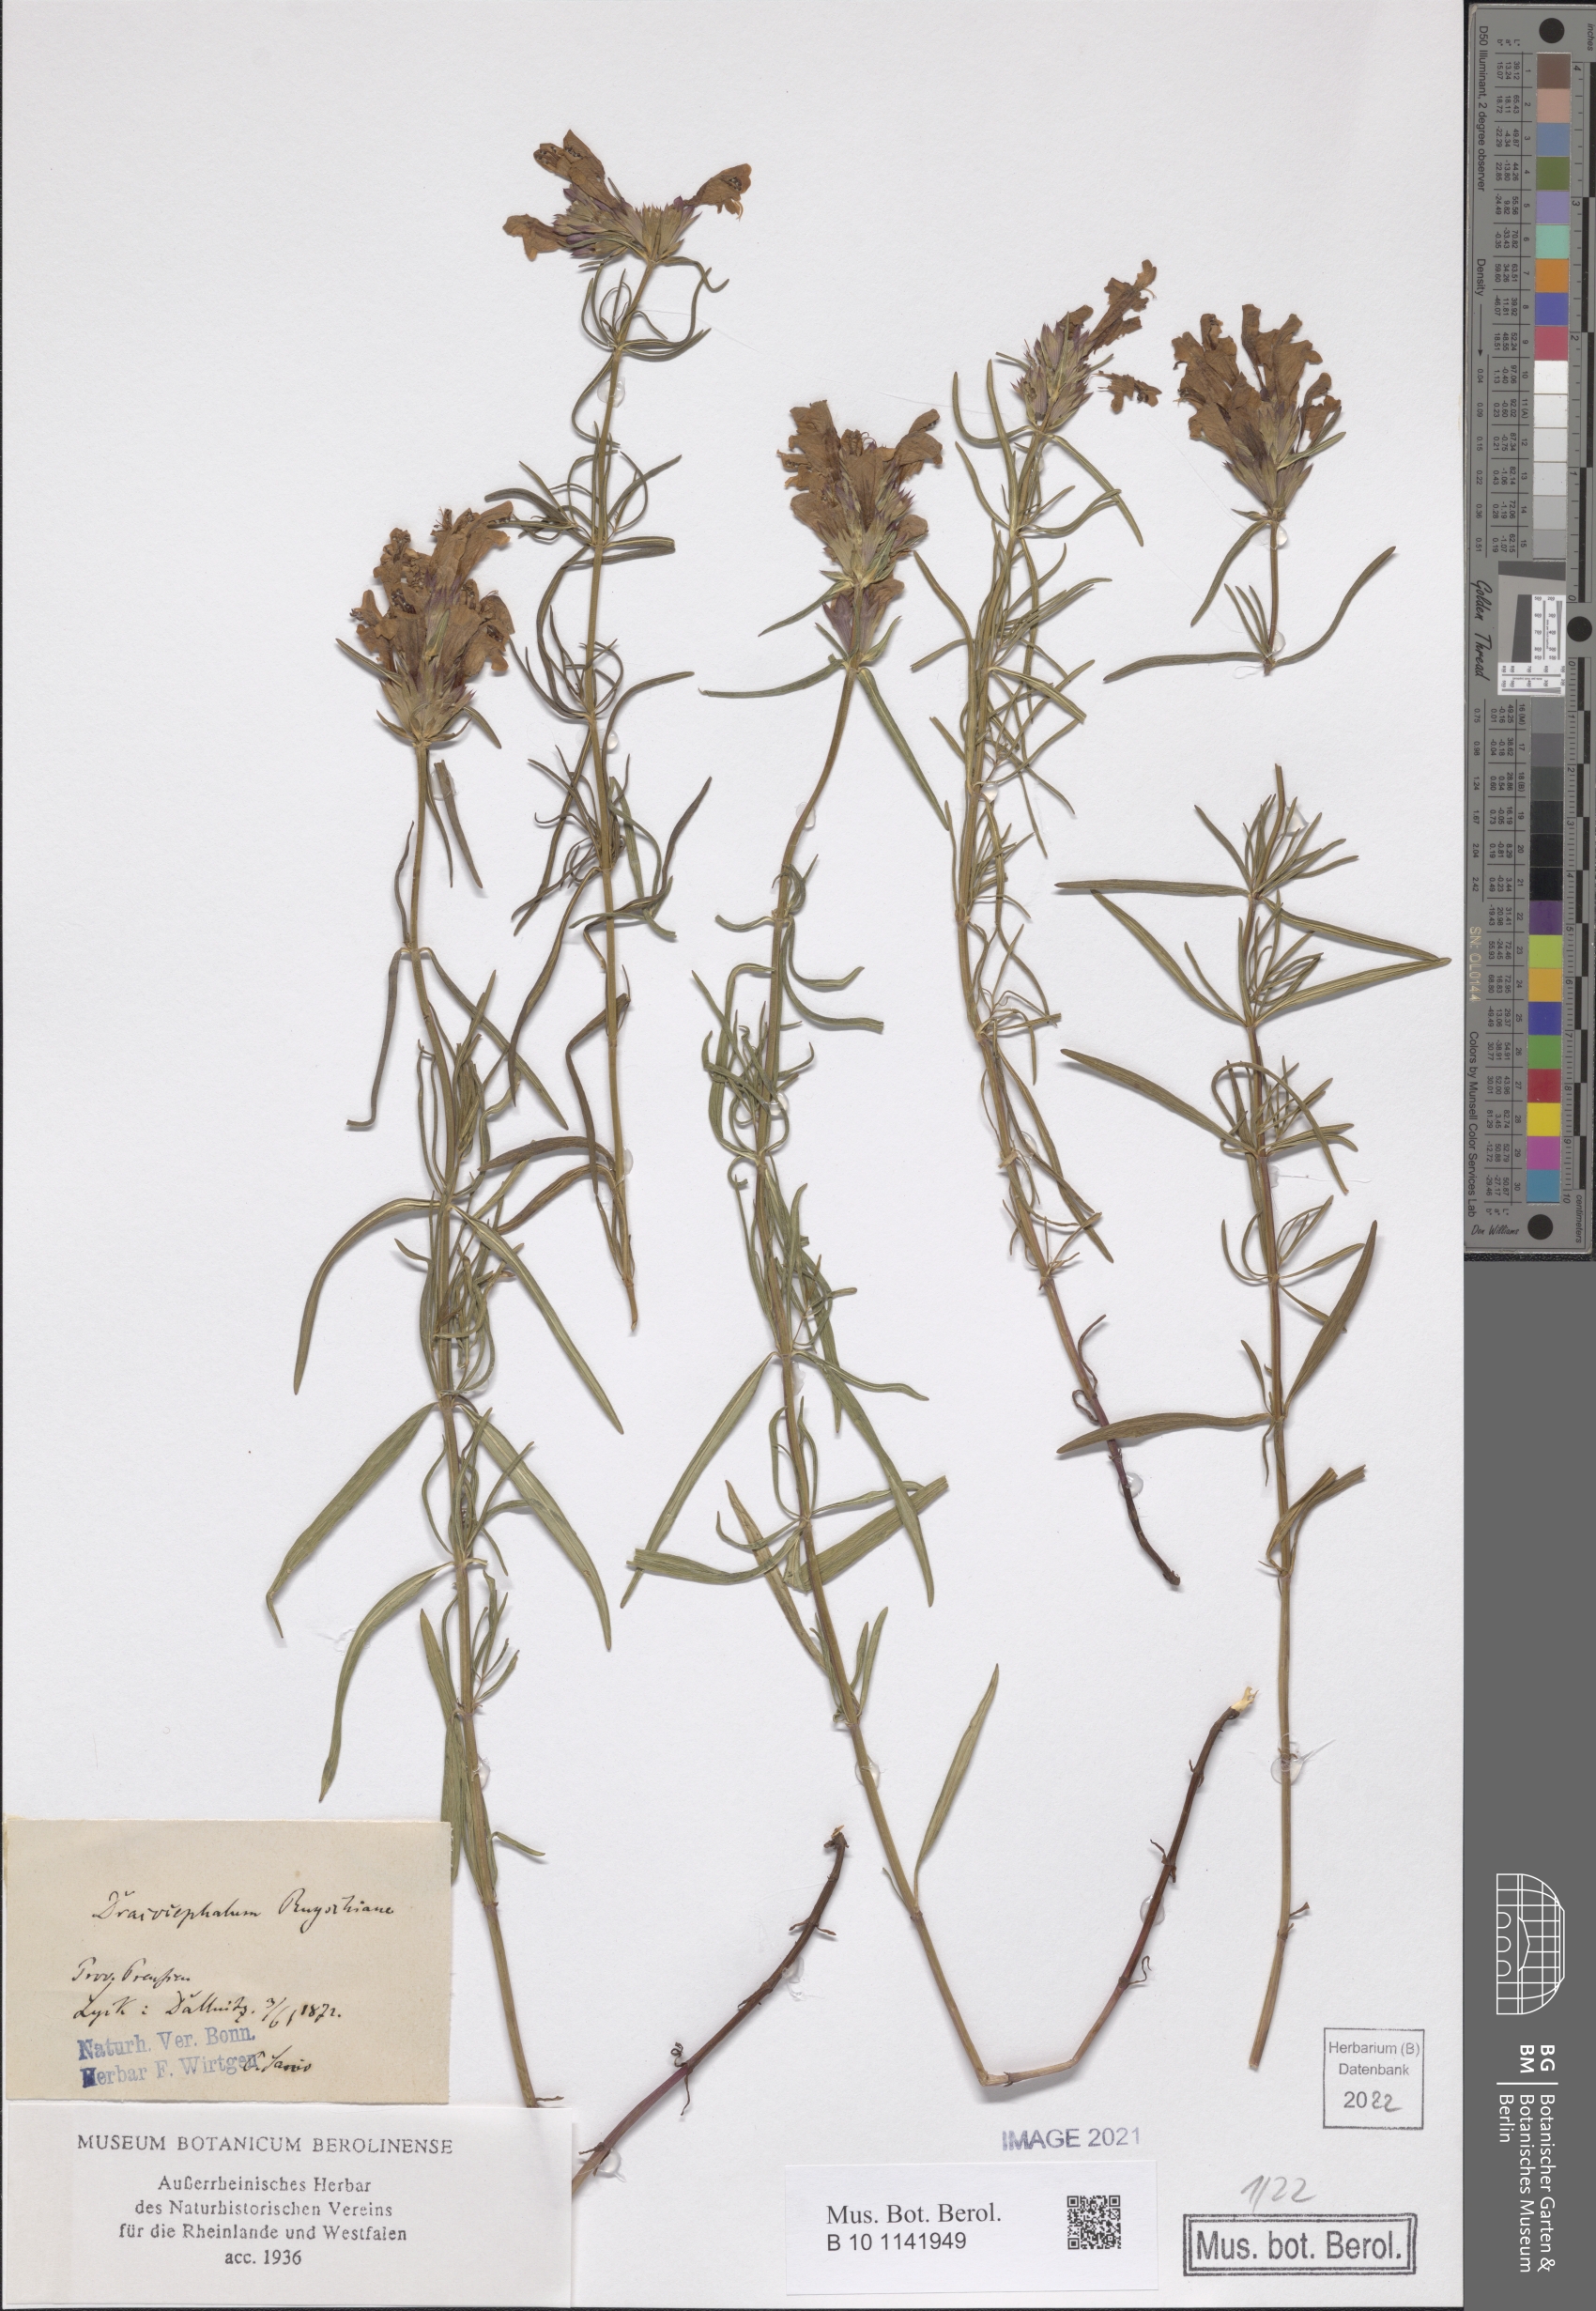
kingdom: Plantae
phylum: Tracheophyta
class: Magnoliopsida
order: Lamiales
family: Lamiaceae
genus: Dracocephalum
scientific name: Dracocephalum ruyschiana
